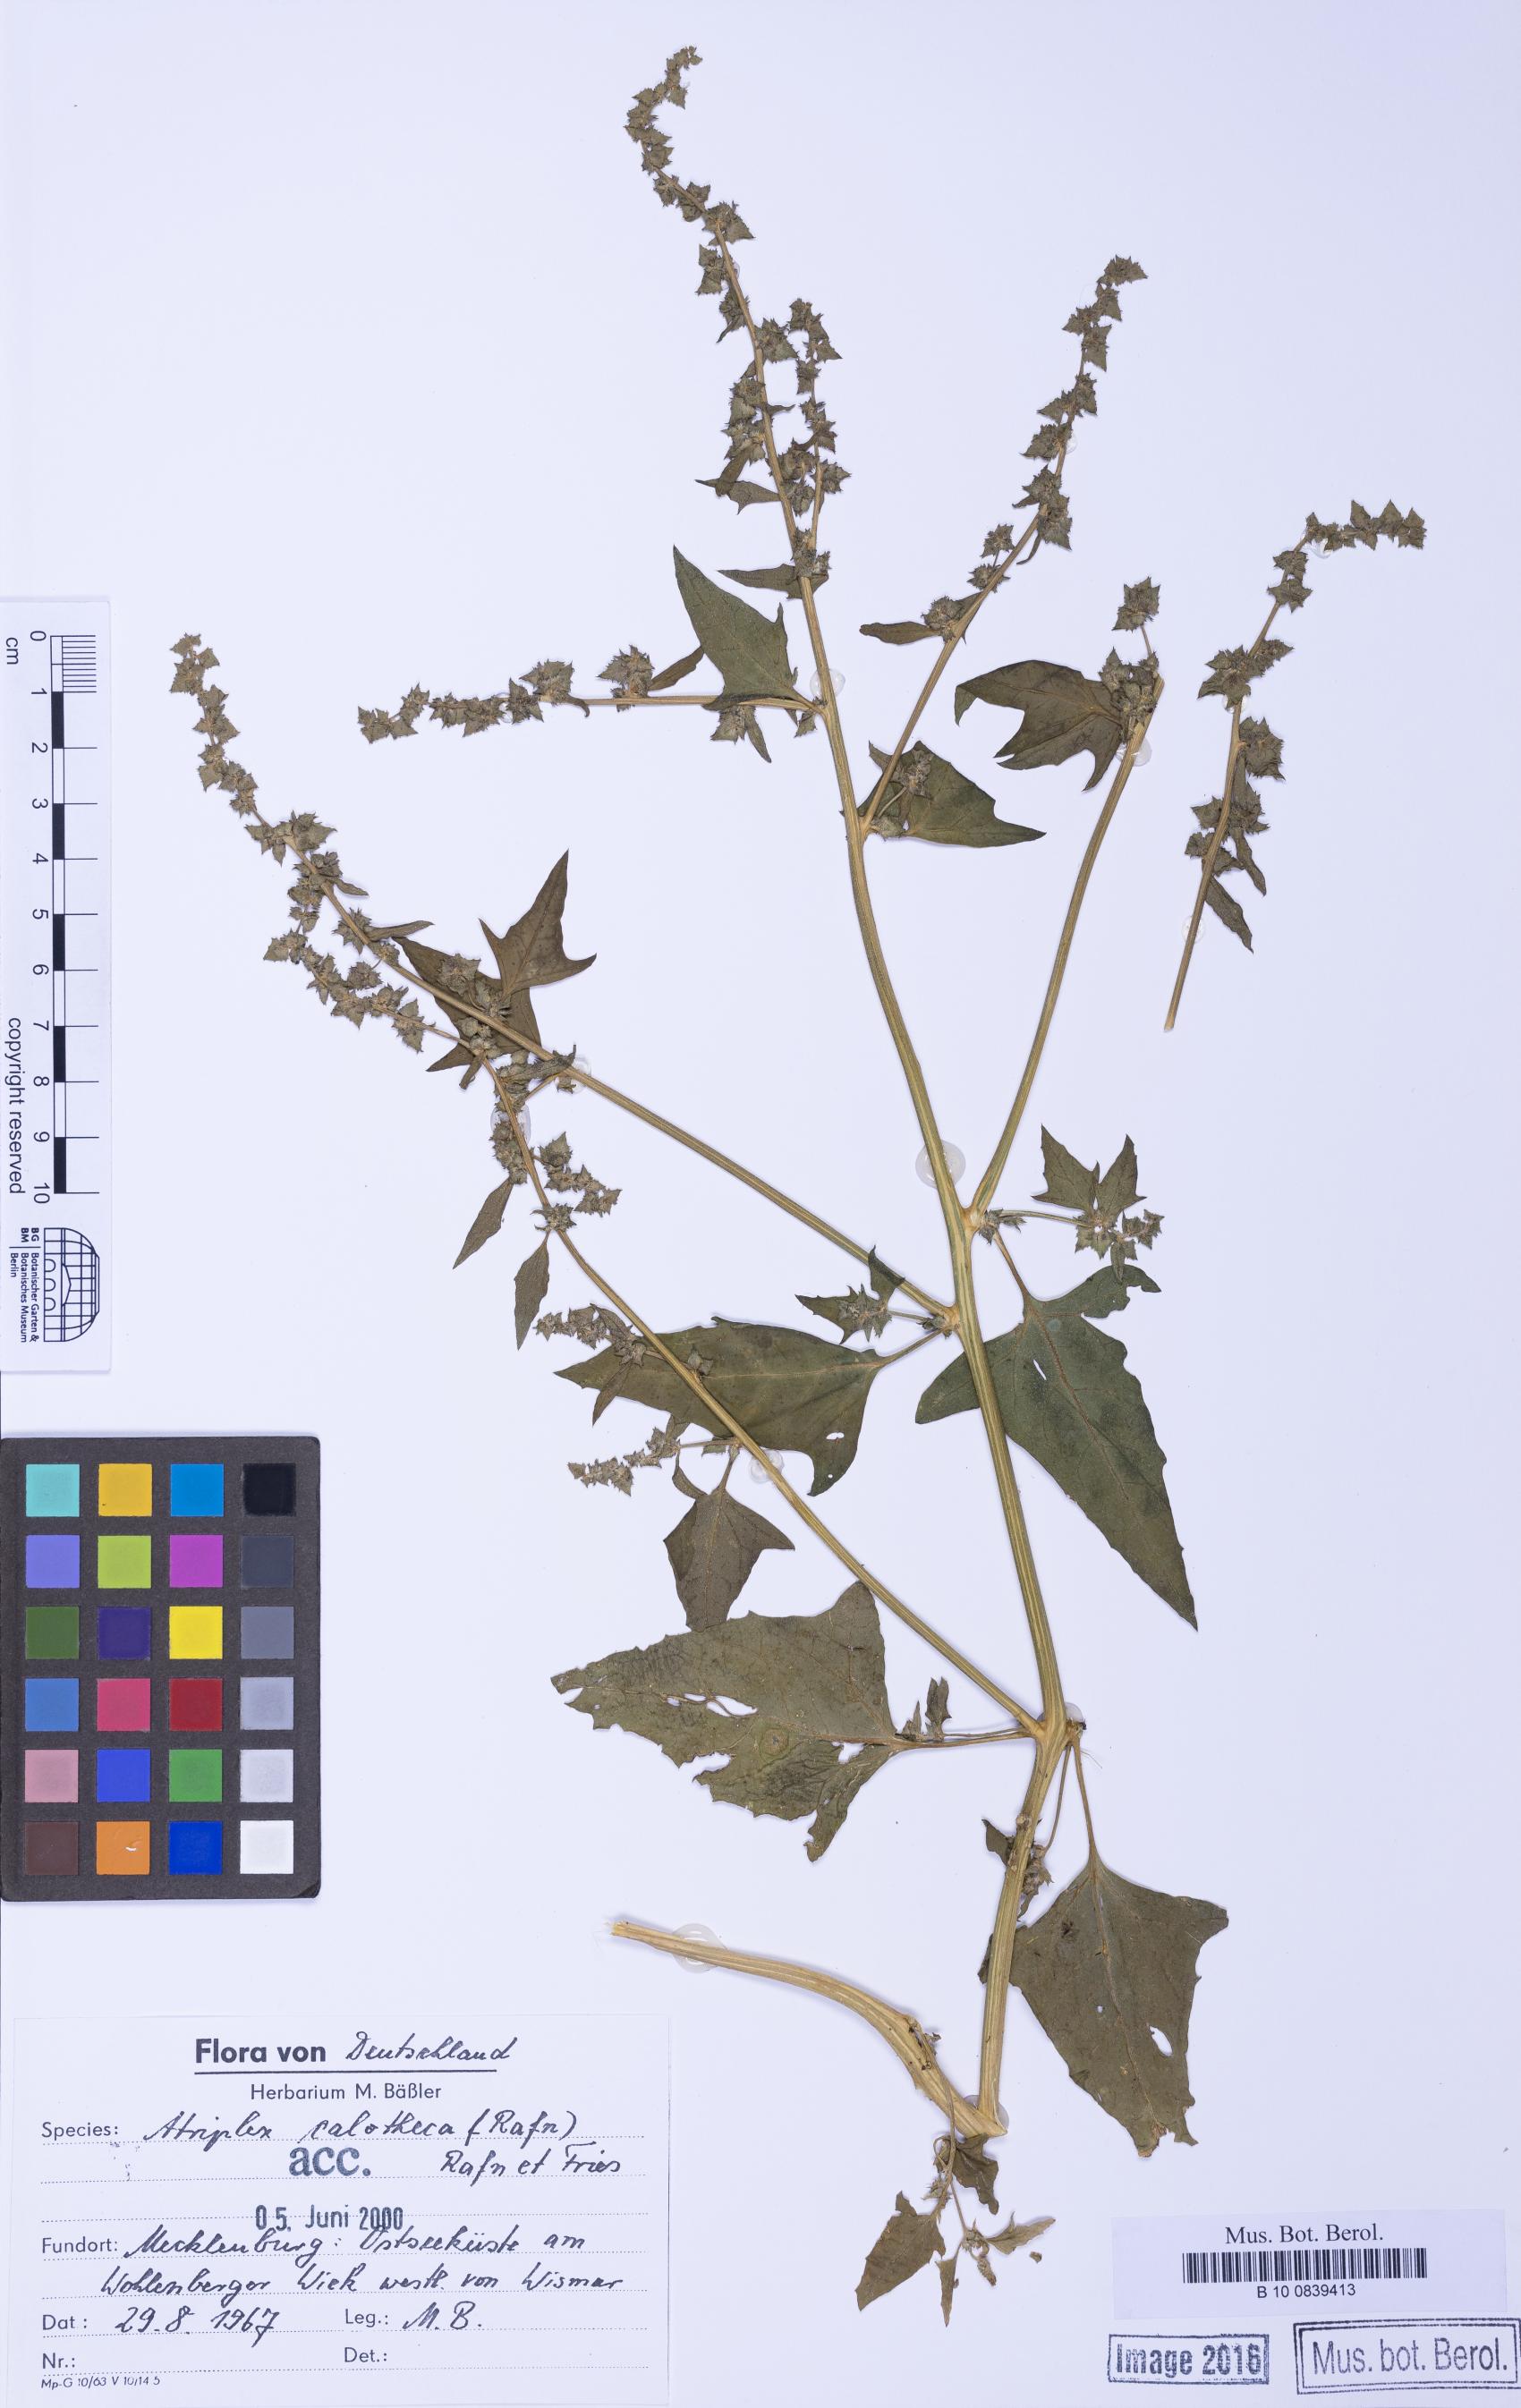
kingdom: Plantae
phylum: Tracheophyta
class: Magnoliopsida
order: Caryophyllales
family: Amaranthaceae
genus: Atriplex
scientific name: Atriplex calotheca
